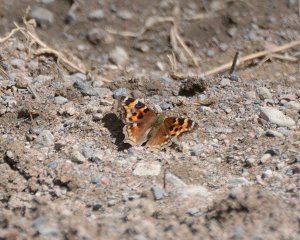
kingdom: Animalia
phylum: Arthropoda
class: Insecta
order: Lepidoptera
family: Nymphalidae
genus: Polygonia
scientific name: Polygonia vaualbum
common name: Compton Tortoiseshell
